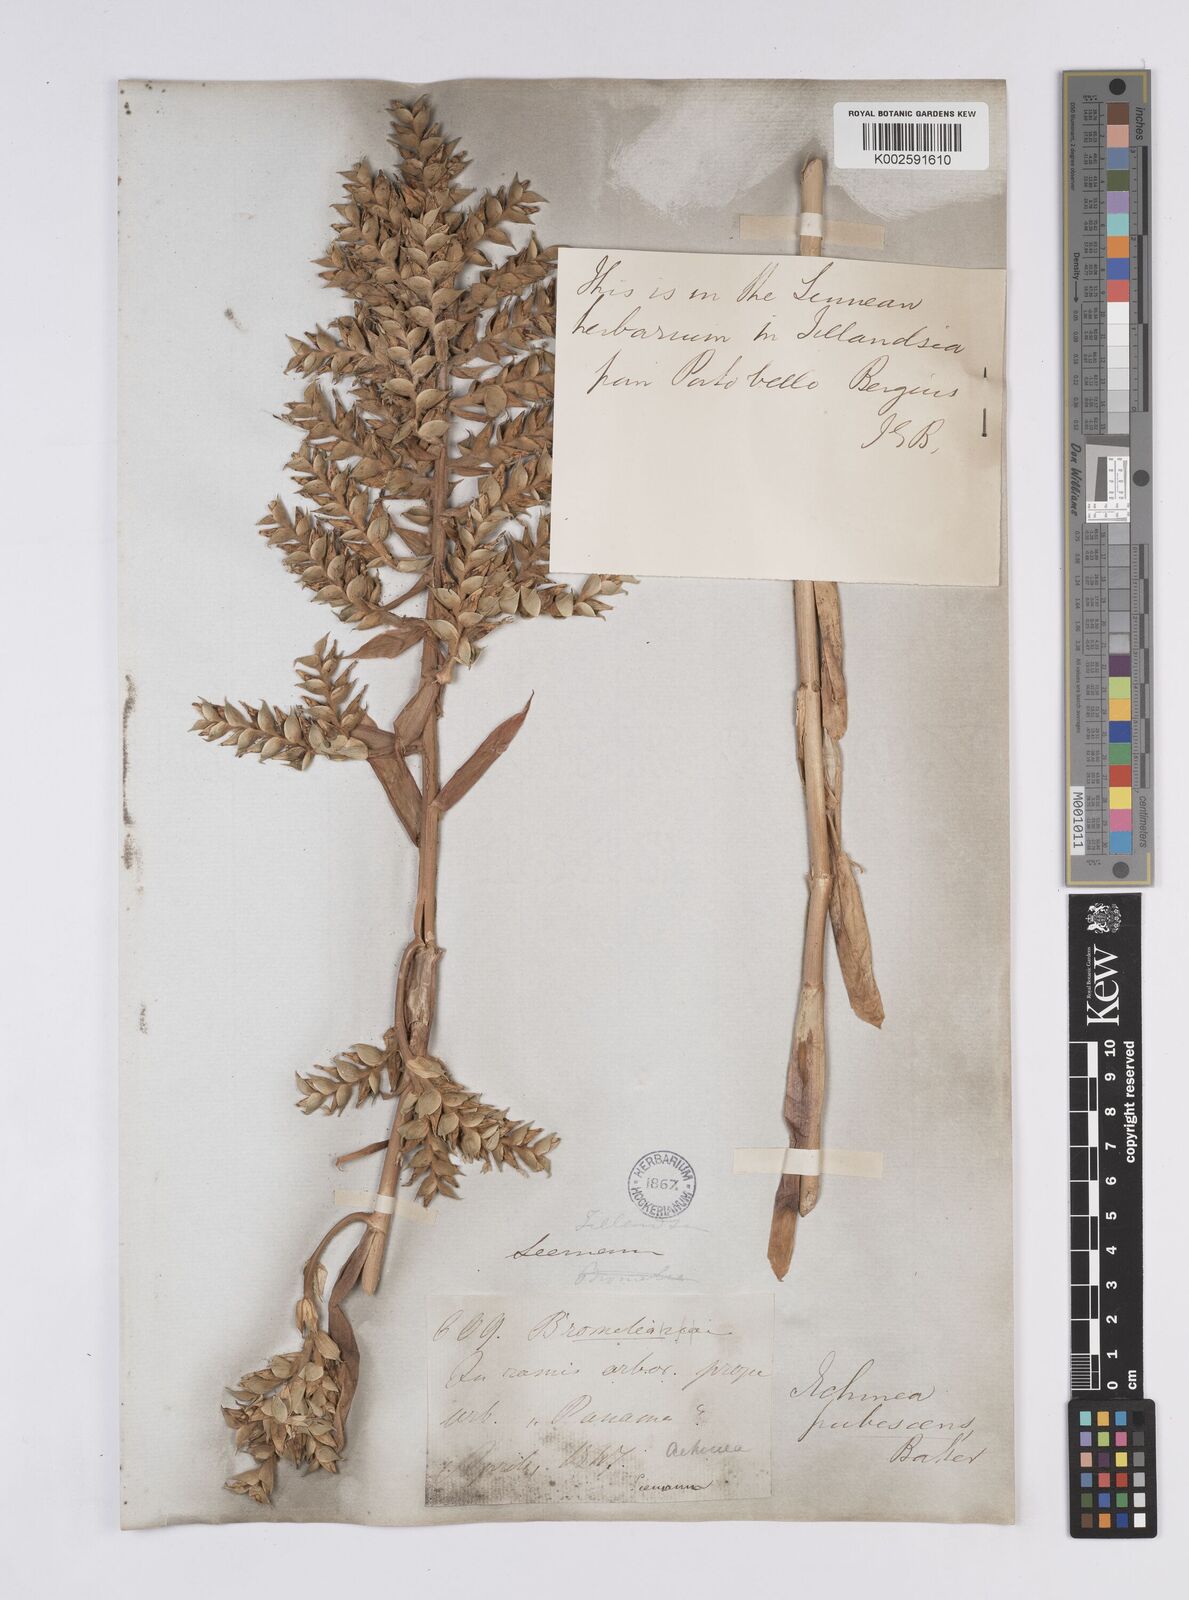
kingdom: Plantae
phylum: Tracheophyta
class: Liliopsida
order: Poales
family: Bromeliaceae
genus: Aechmea
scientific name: Aechmea pubescens
